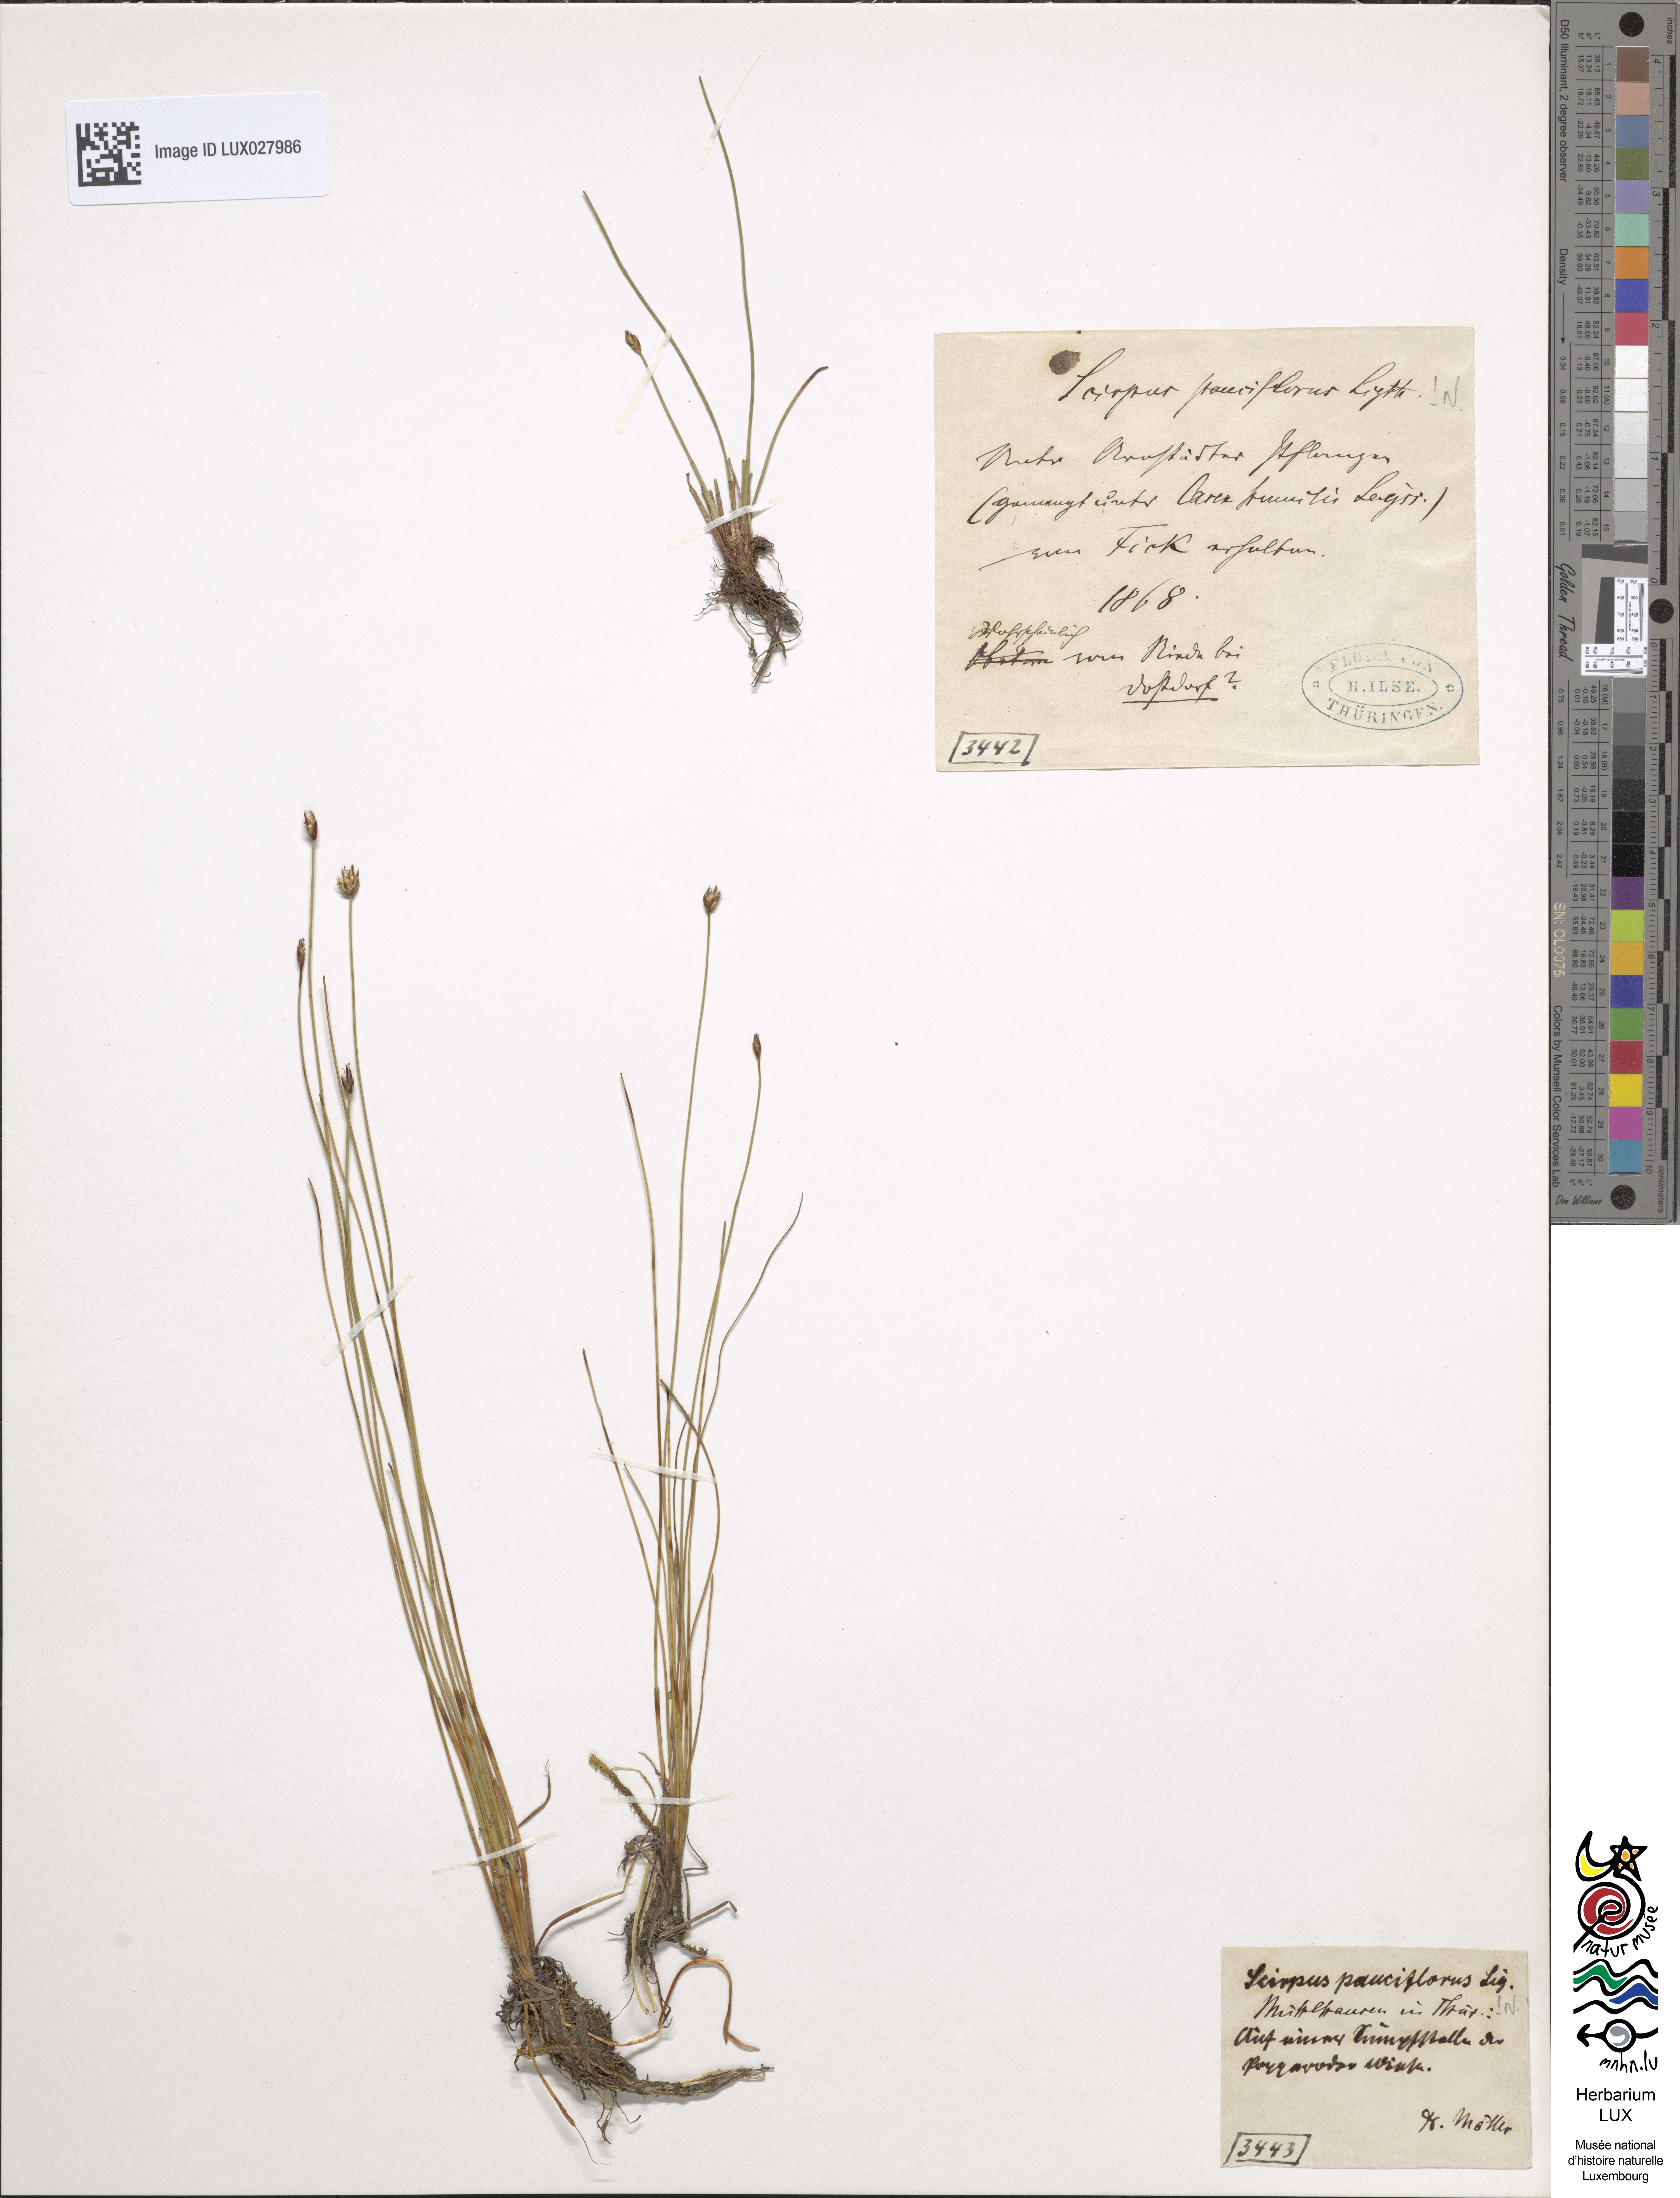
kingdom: Plantae
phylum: Tracheophyta
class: Liliopsida
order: Poales
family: Cyperaceae
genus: Eleocharis
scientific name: Eleocharis quinqueflora
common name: Few-flowered spike-rush
